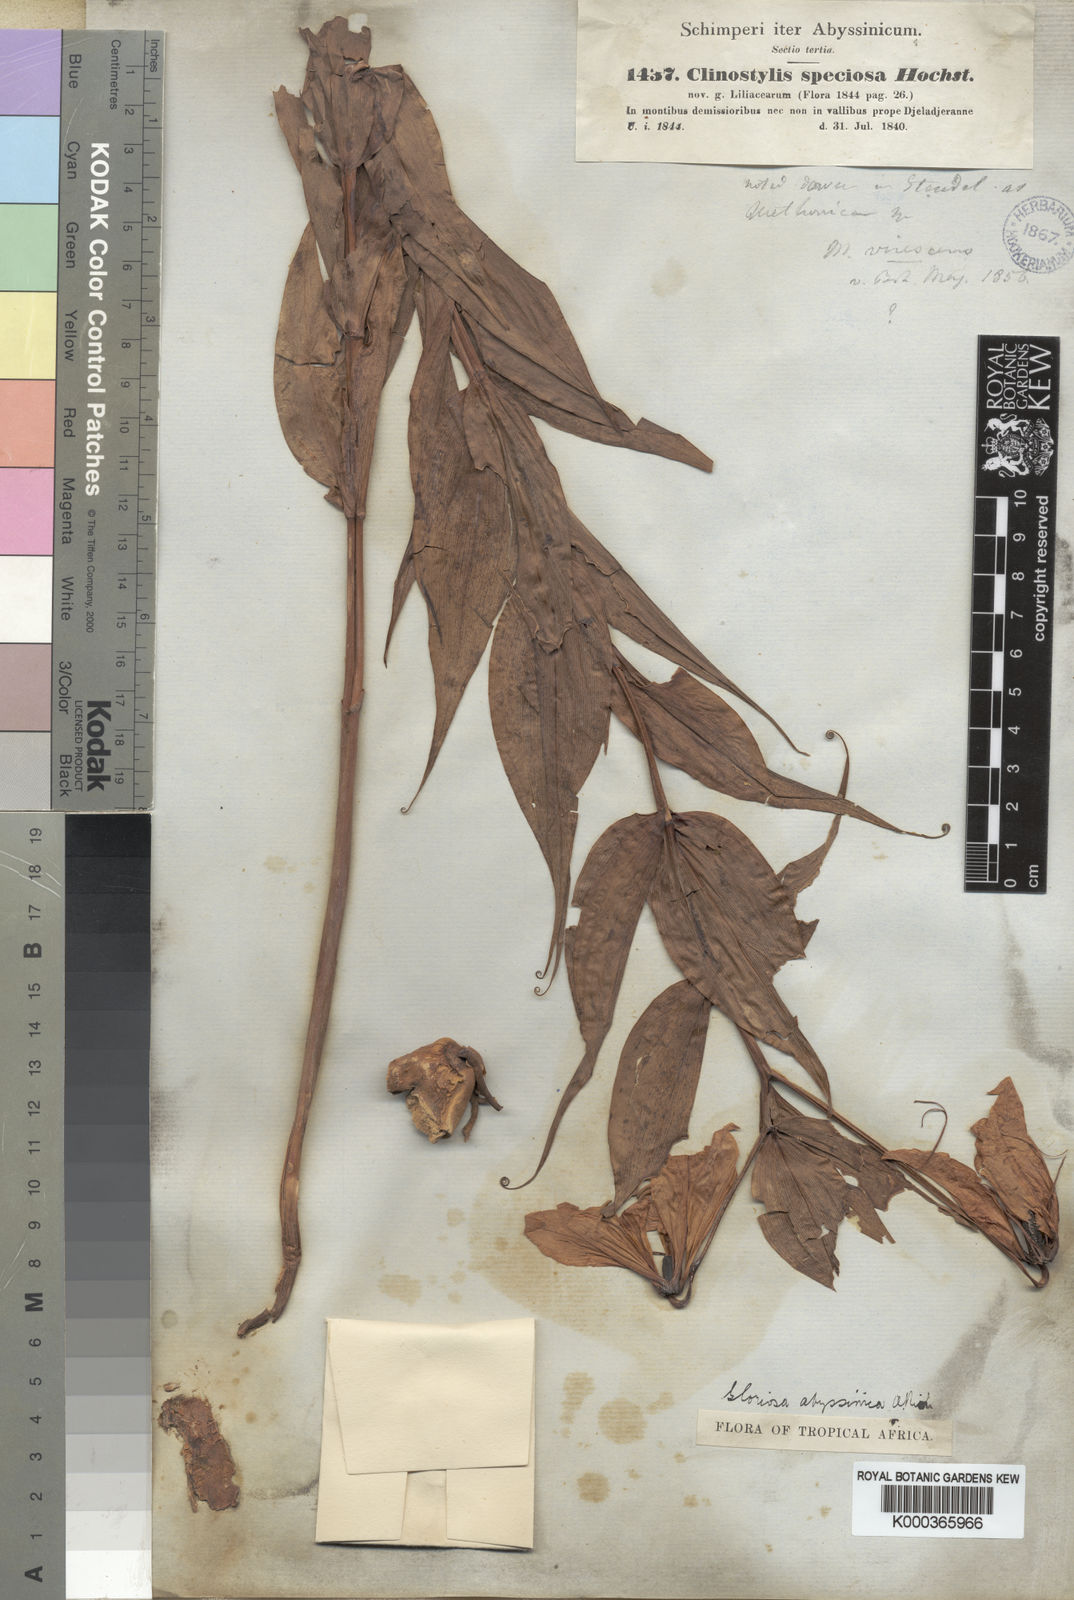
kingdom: Plantae
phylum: Tracheophyta
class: Liliopsida
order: Liliales
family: Colchicaceae
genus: Gloriosa
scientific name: Gloriosa superba
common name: Flame lily
